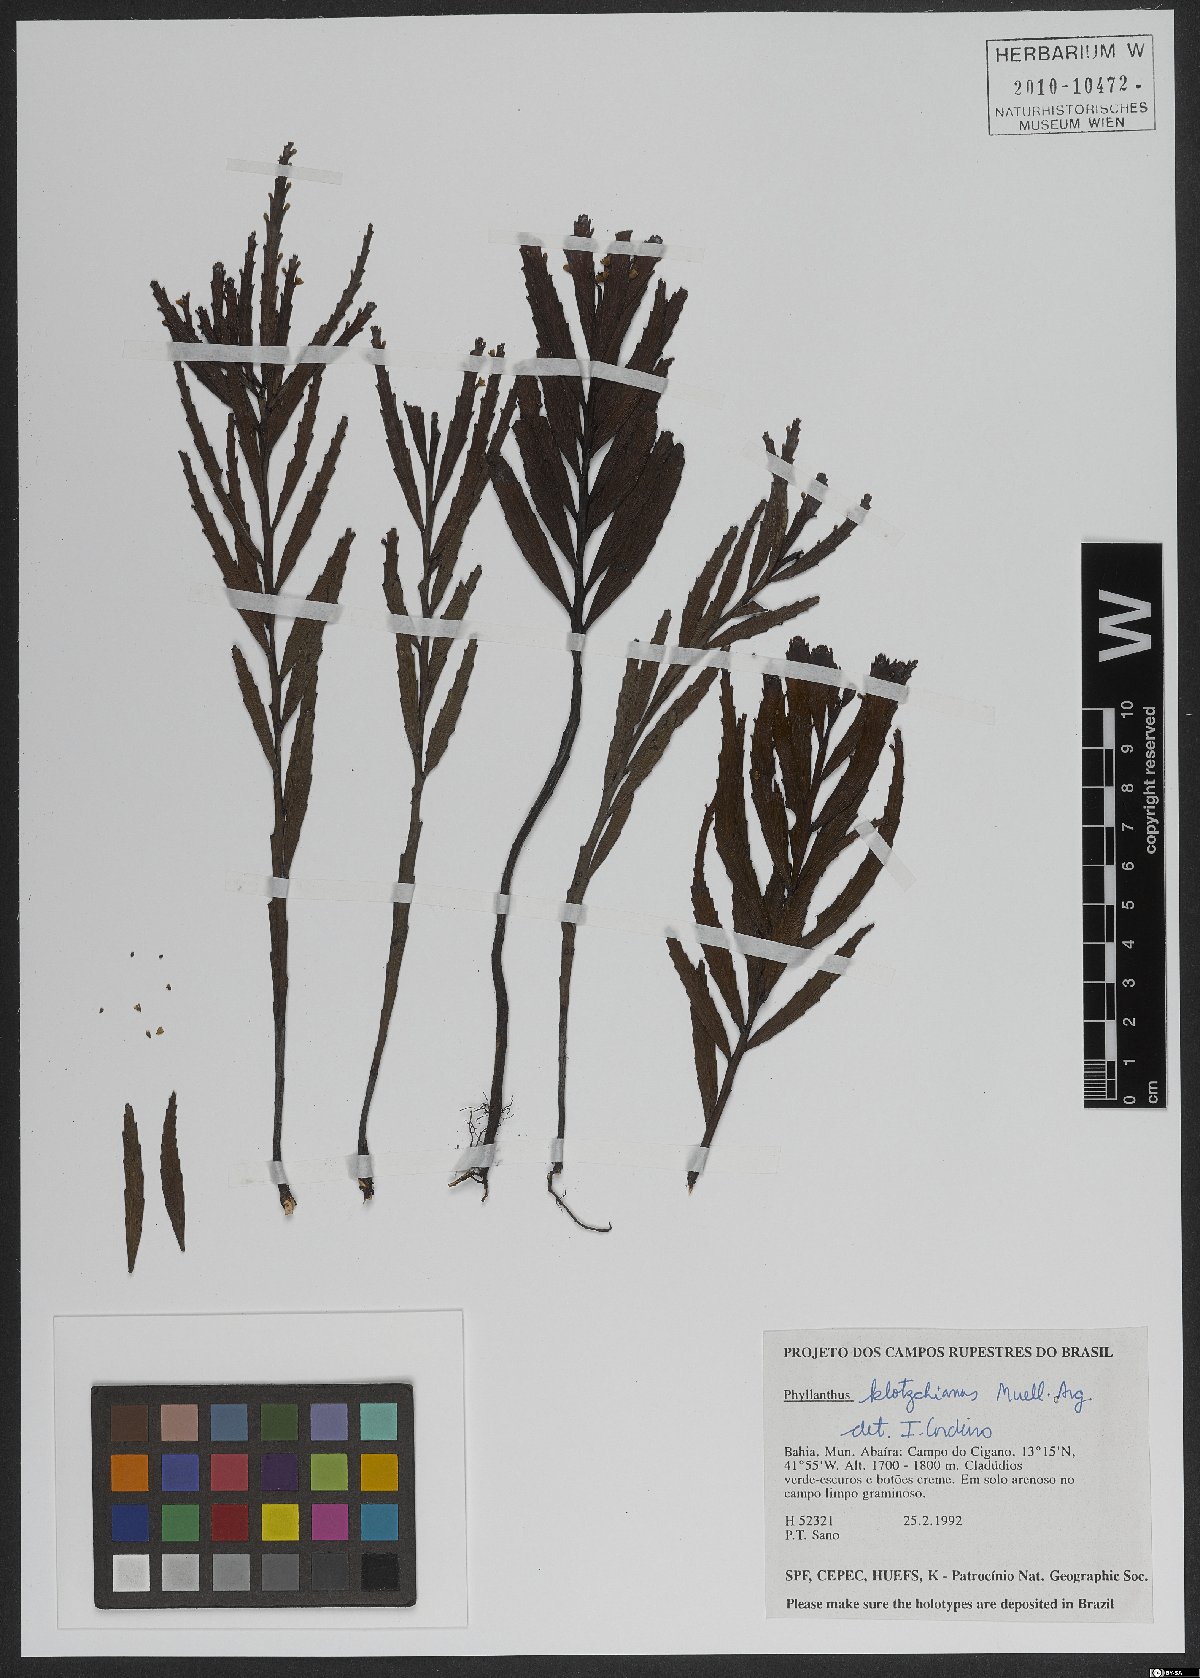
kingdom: Plantae
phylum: Tracheophyta
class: Magnoliopsida
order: Malpighiales
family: Phyllanthaceae
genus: Phyllanthus
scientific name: Phyllanthus robustus
